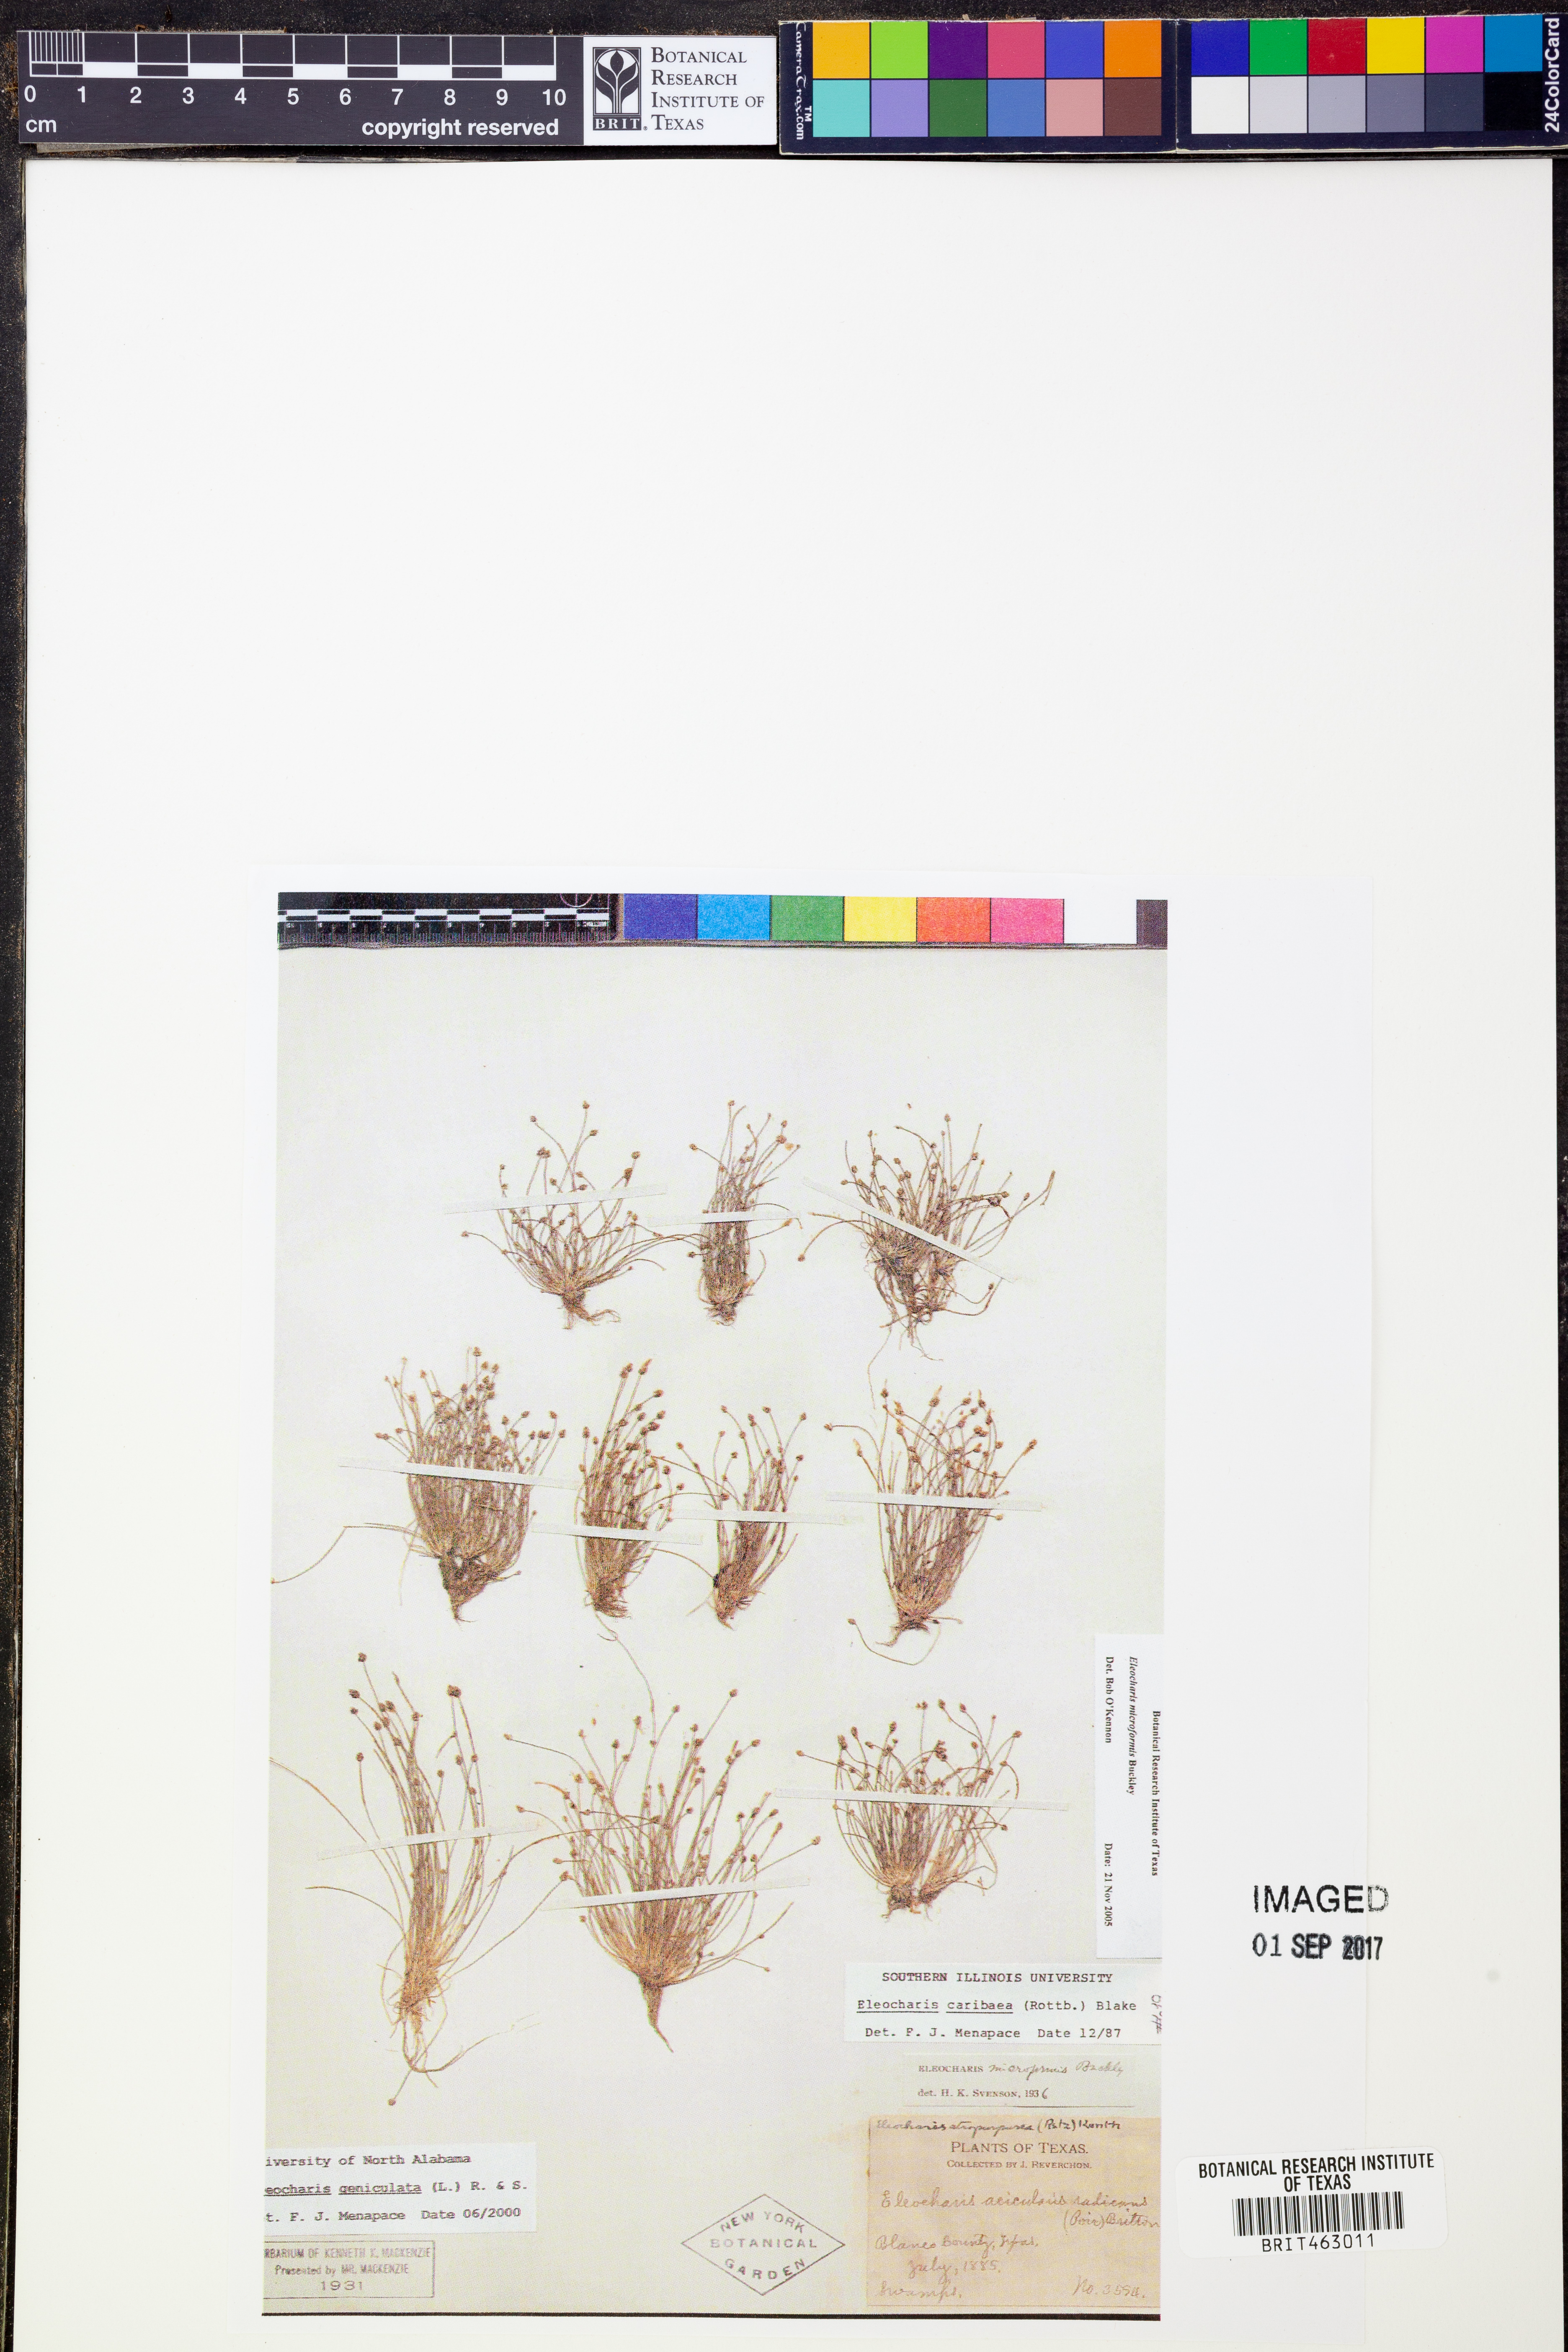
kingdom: Plantae
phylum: Tracheophyta
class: Liliopsida
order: Poales
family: Cyperaceae
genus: Eleocharis
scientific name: Eleocharis acicularis
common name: Needle spike-rush
